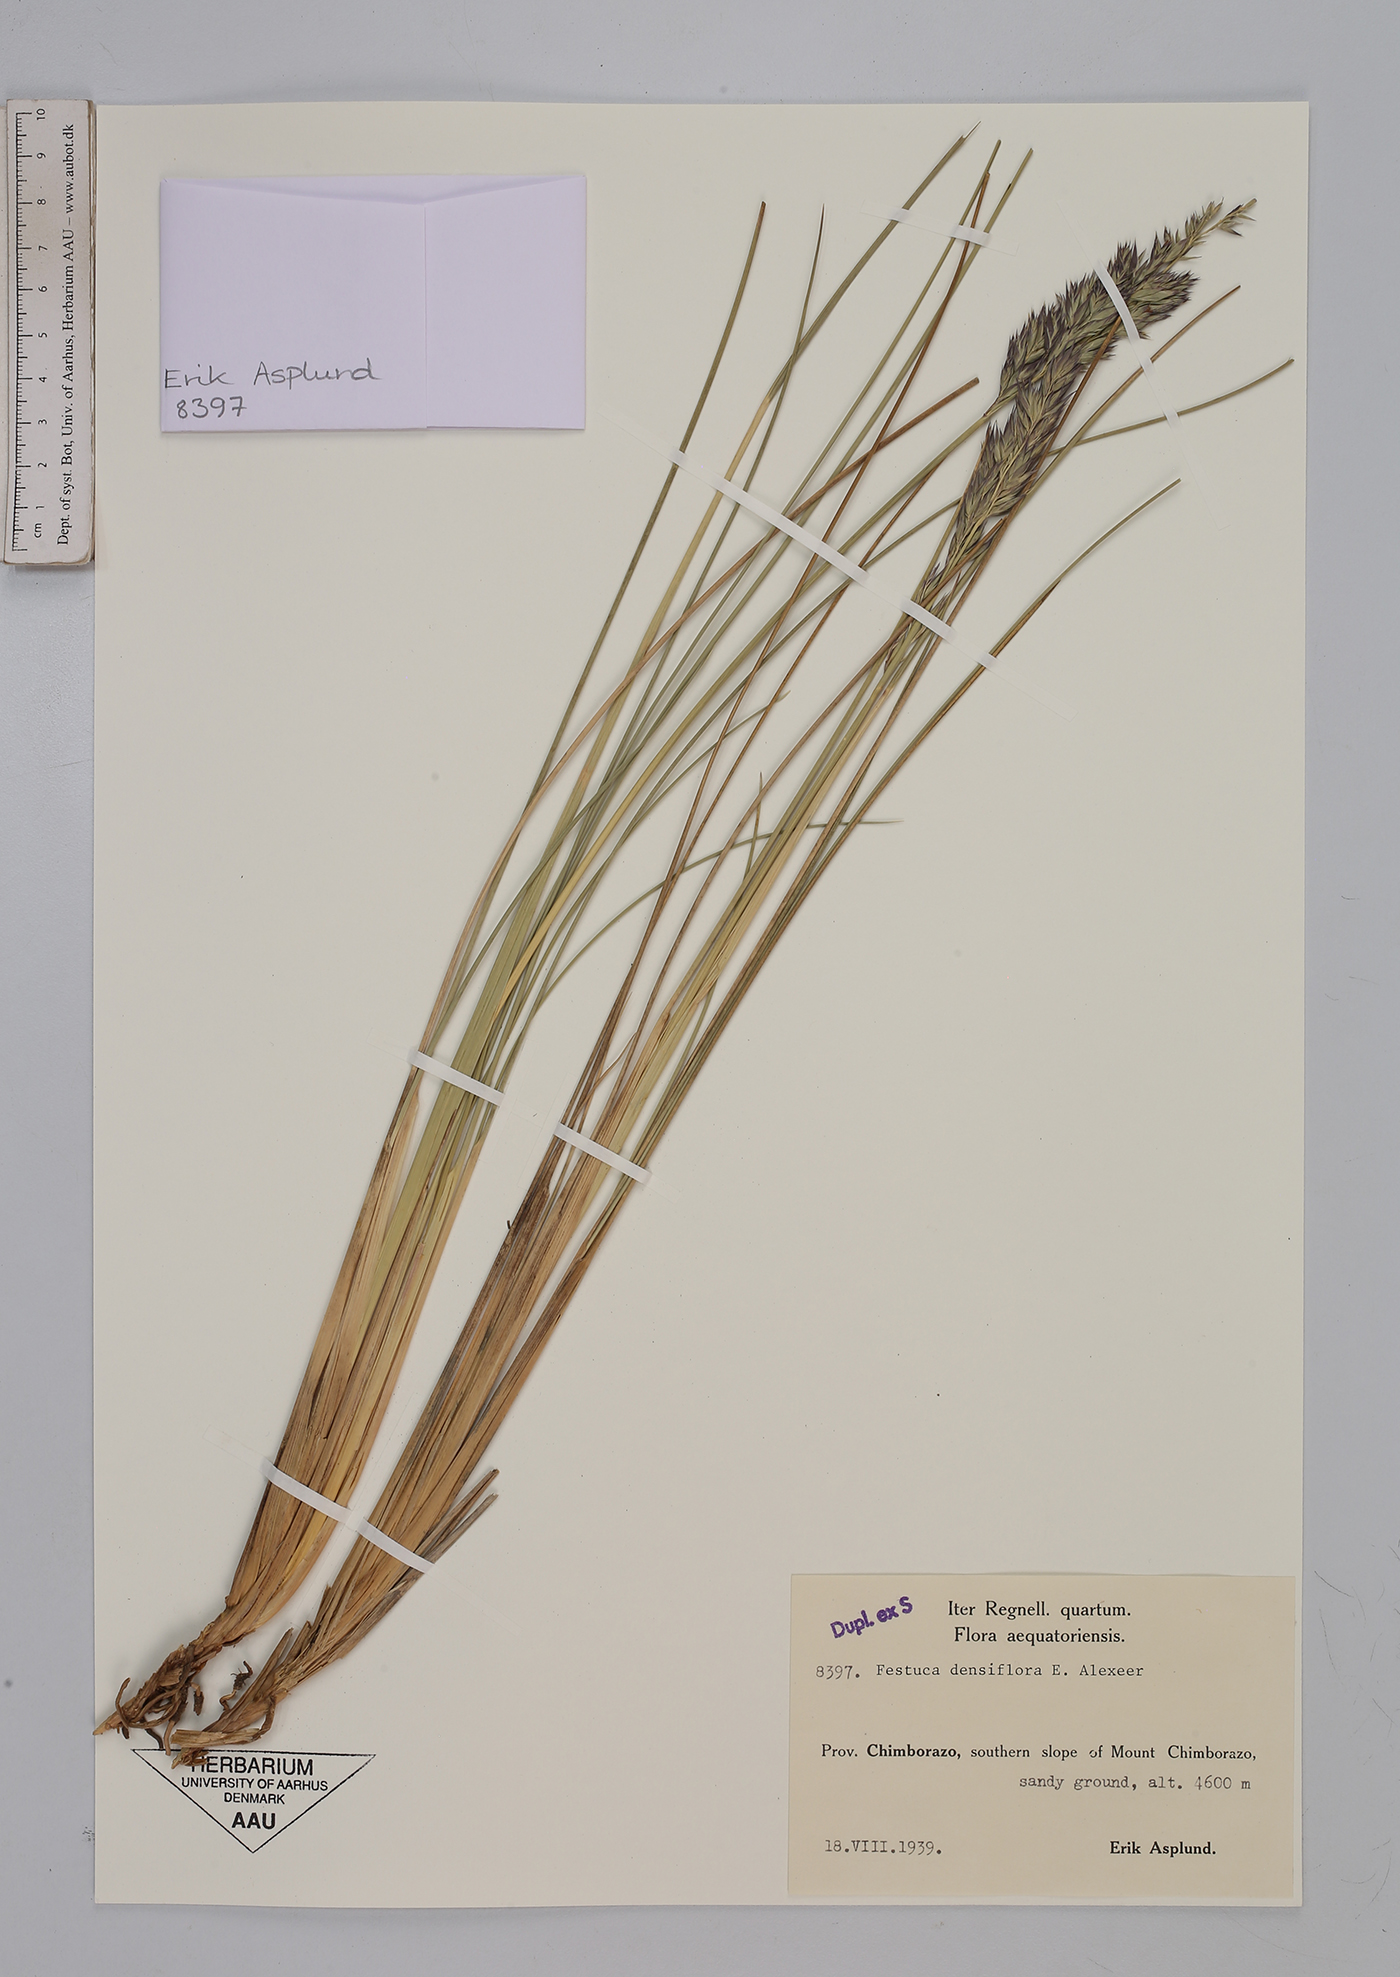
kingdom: Plantae
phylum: Tracheophyta
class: Liliopsida
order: Poales
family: Poaceae
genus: Festuca
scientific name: Festuca densiflora
